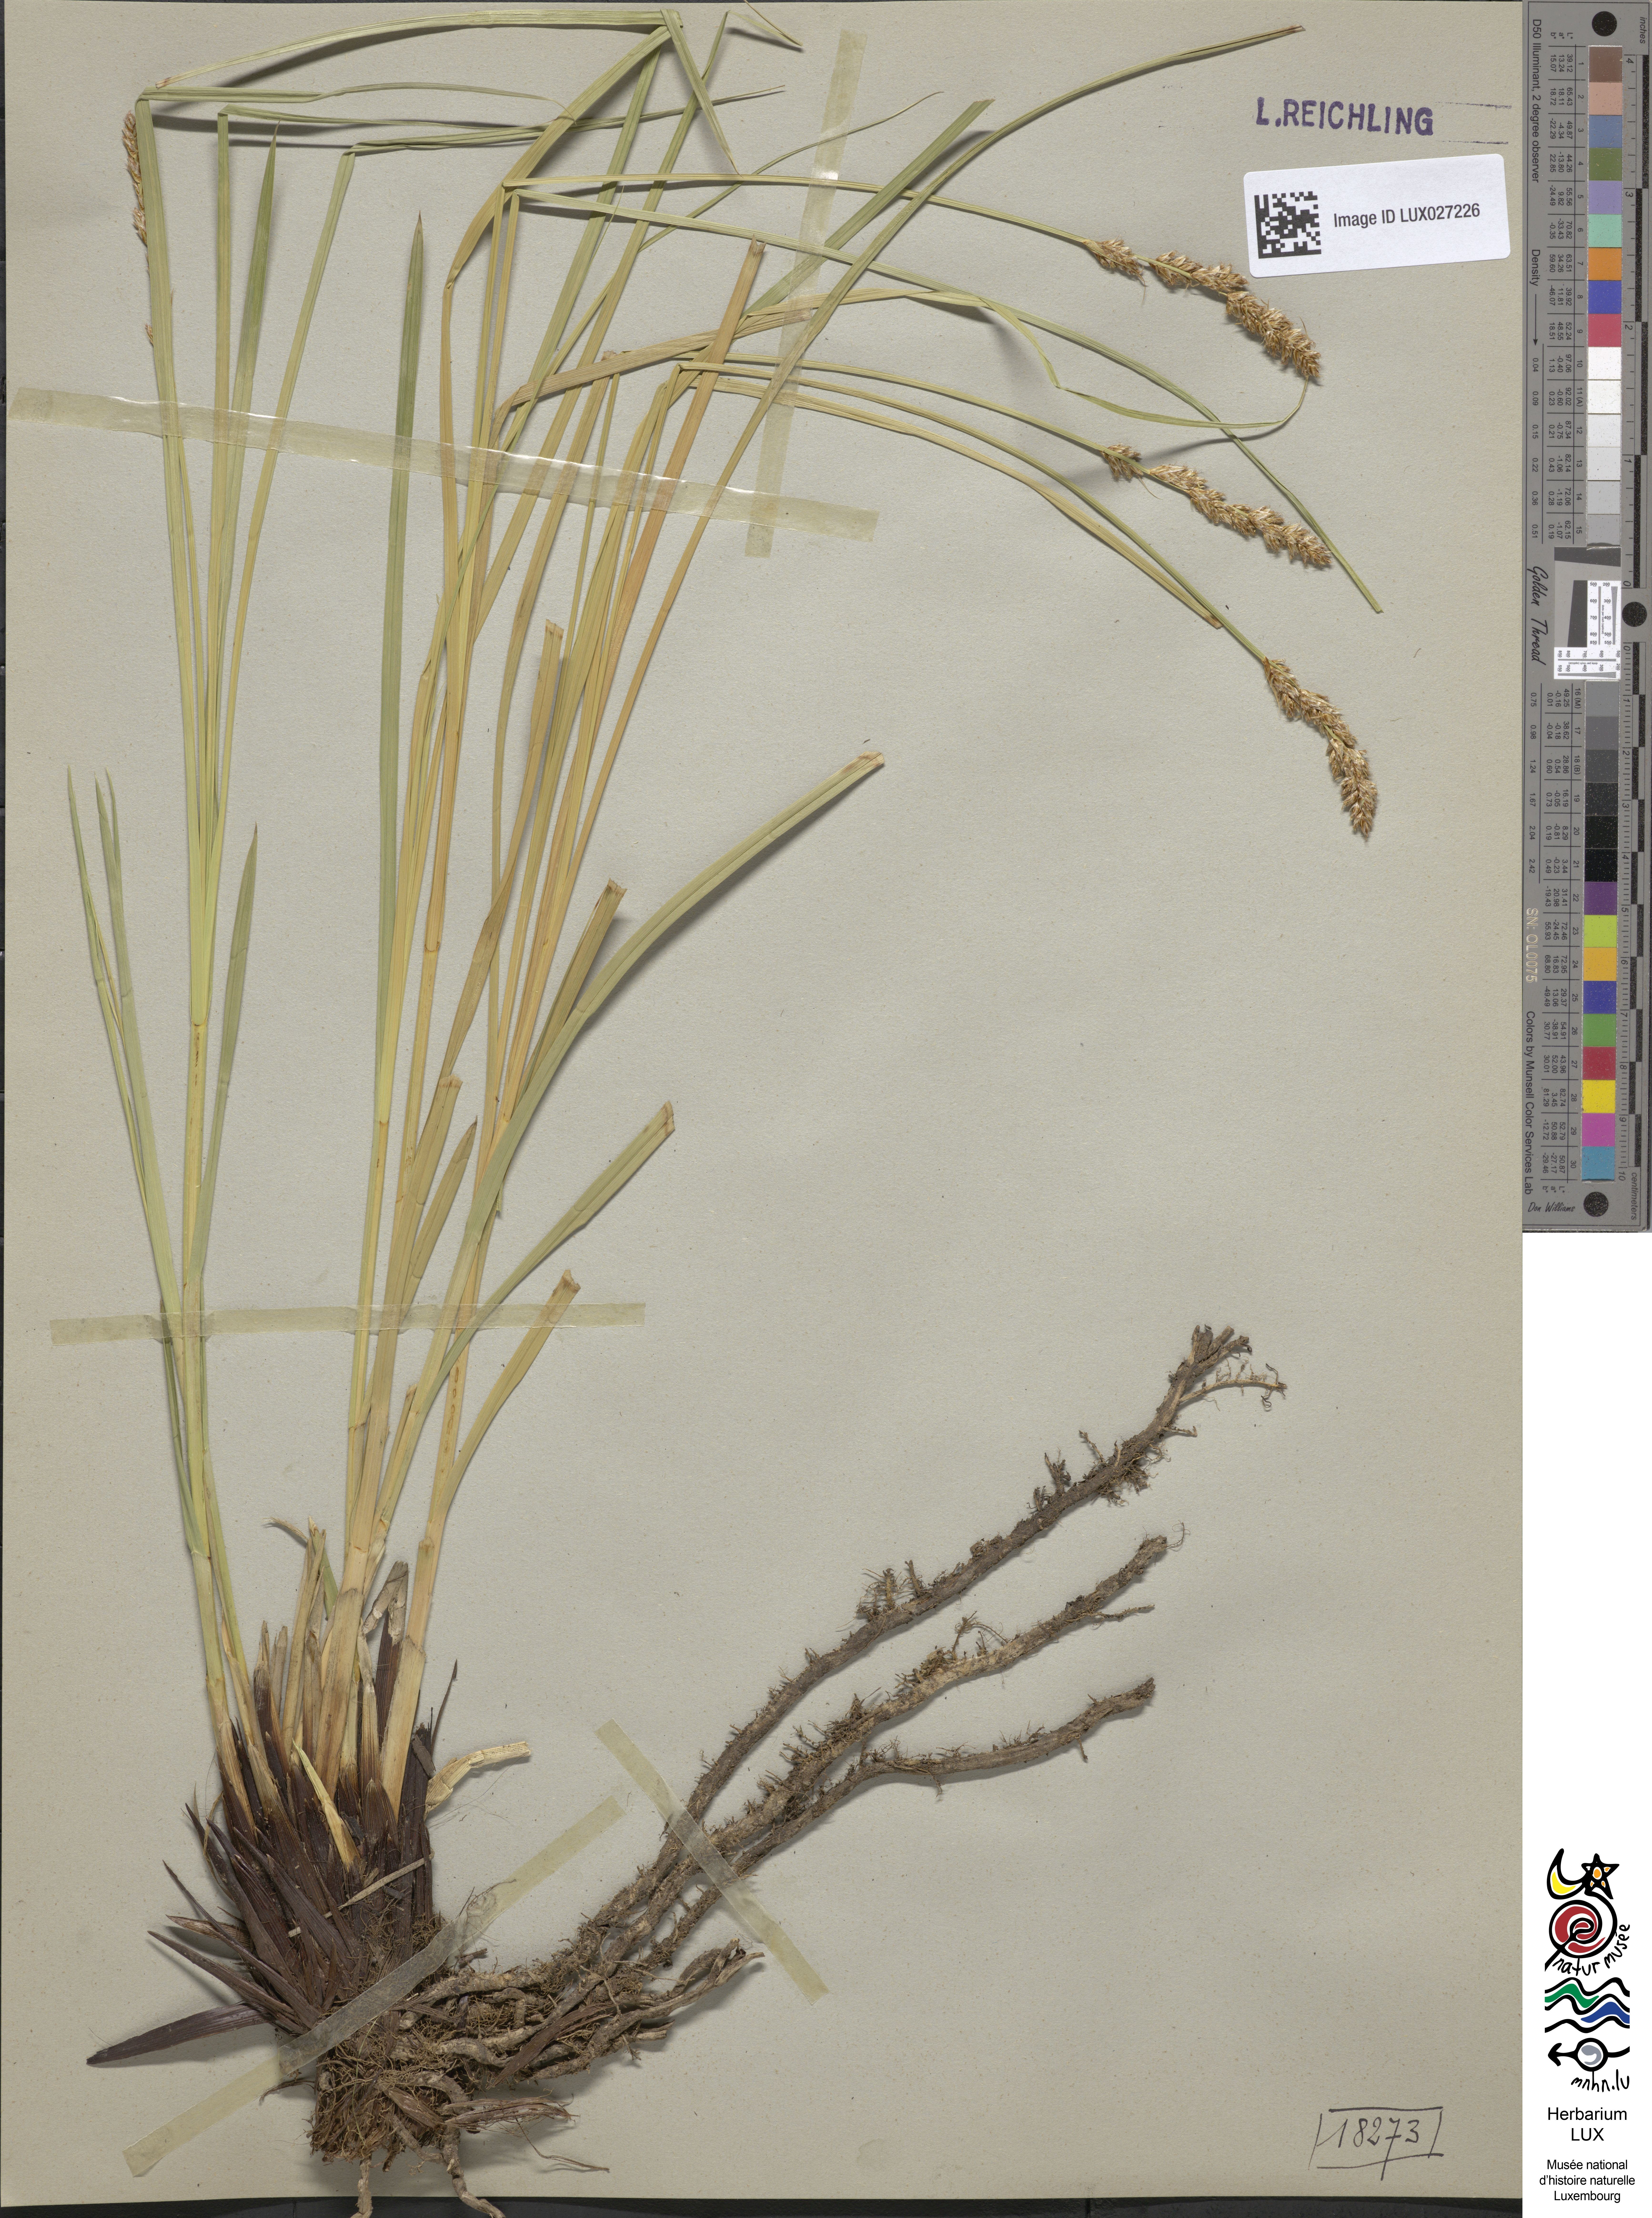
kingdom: Plantae
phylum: Tracheophyta
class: Liliopsida
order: Poales
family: Cyperaceae
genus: Carex
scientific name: Carex paniculata
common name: Greater tussock-sedge
